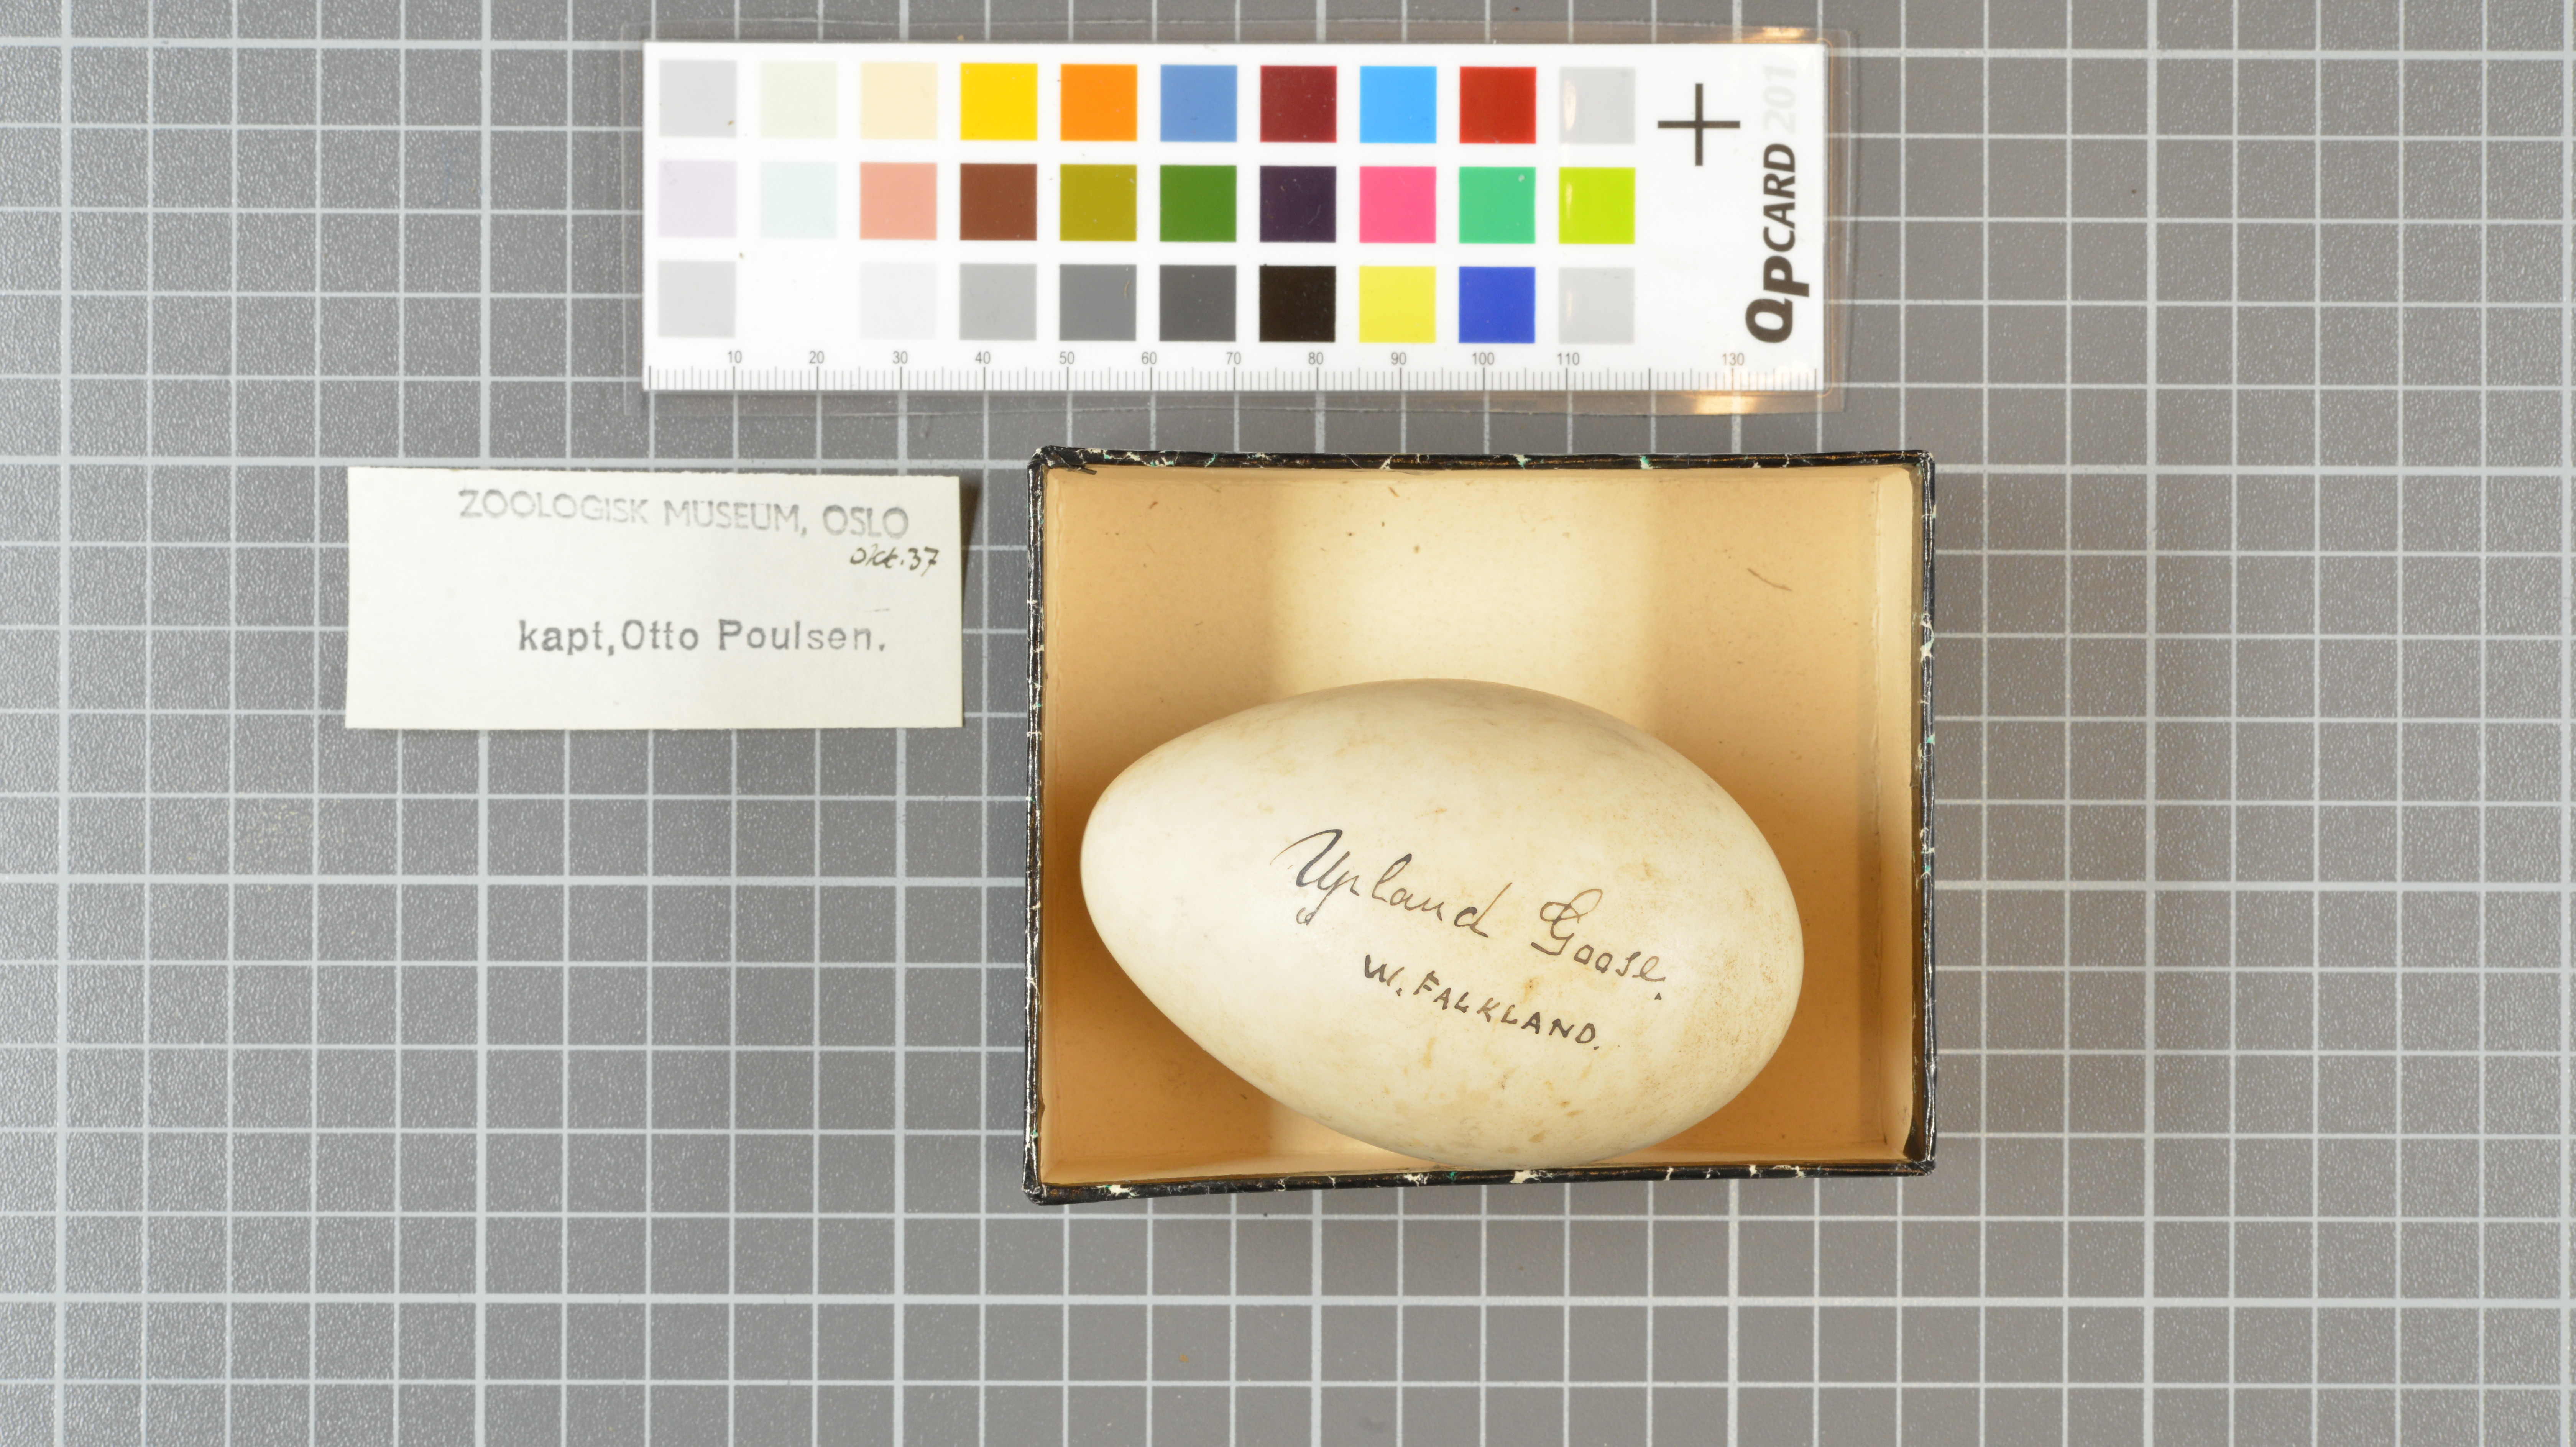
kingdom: Animalia
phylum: Chordata
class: Aves
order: Anseriformes
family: Anatidae
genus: Chloephaga
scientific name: Chloephaga picta
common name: Upland goose
